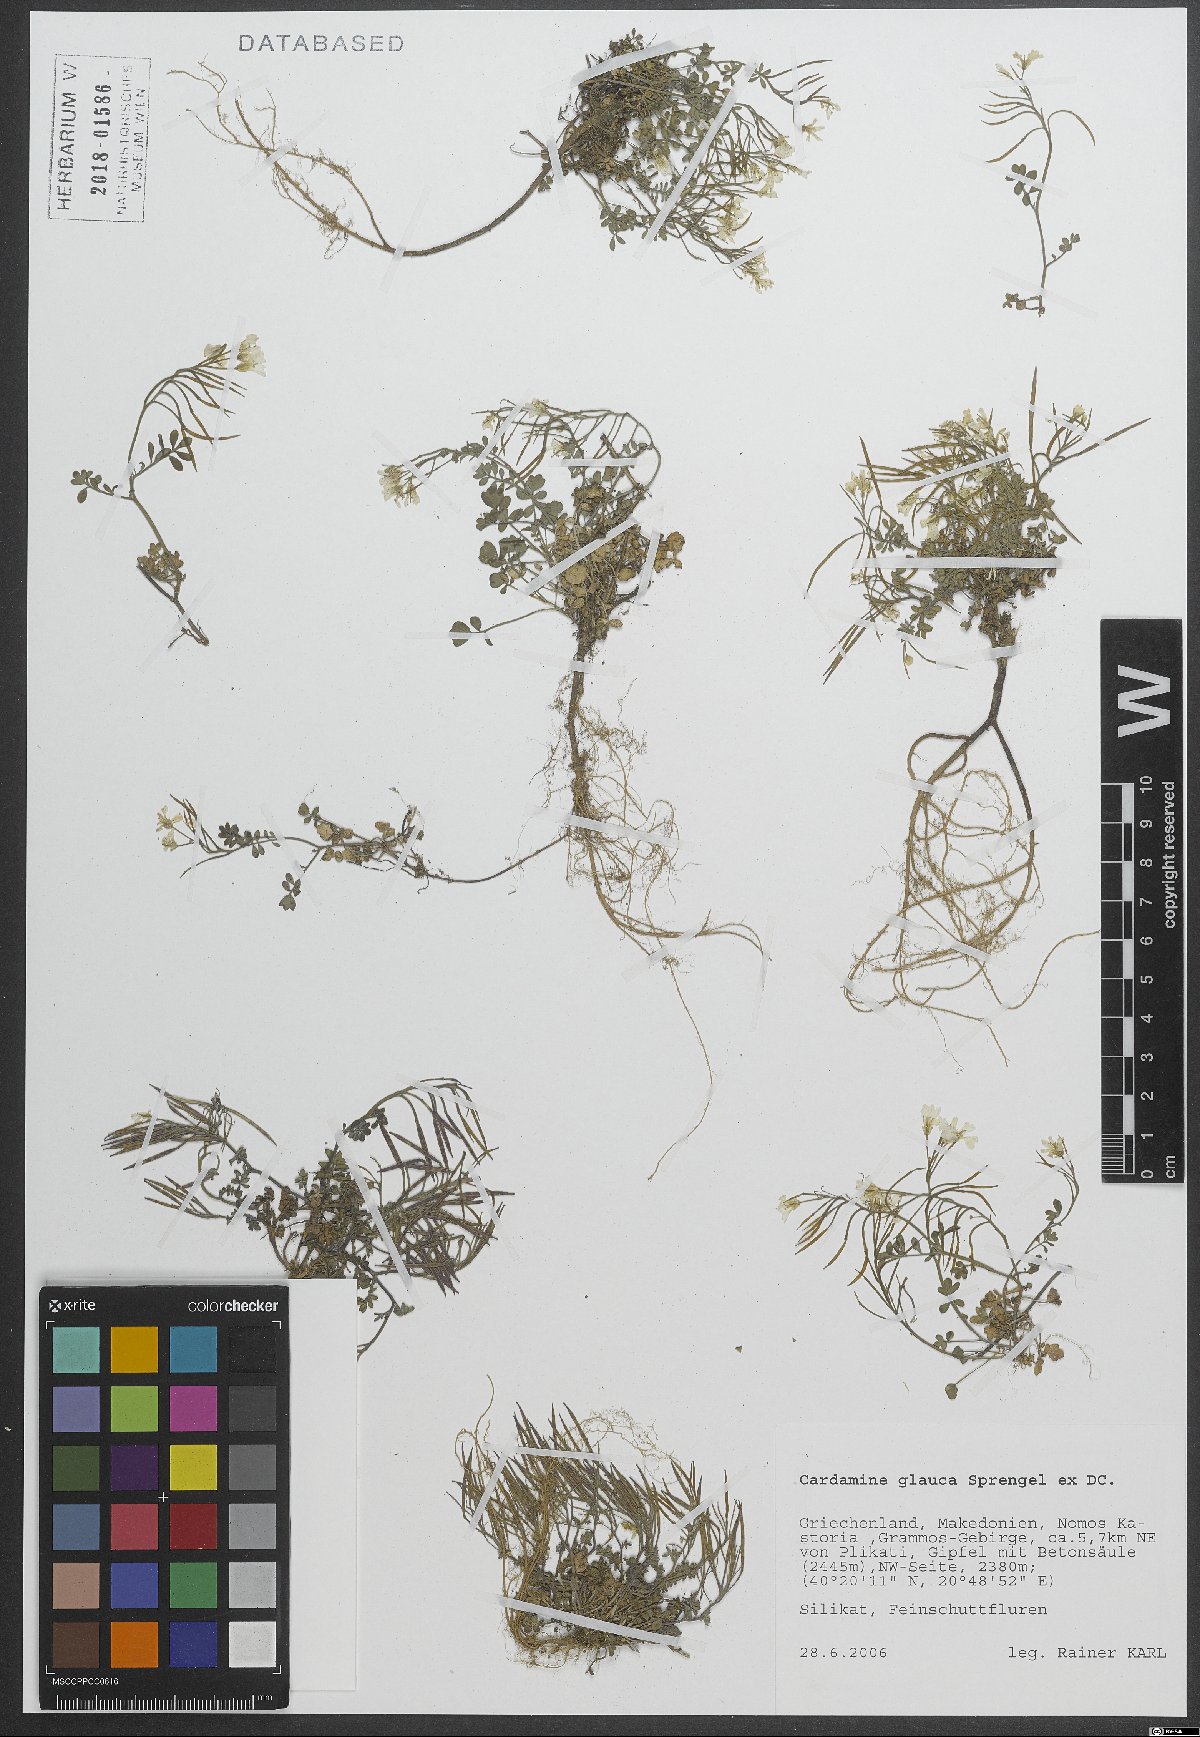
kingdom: Plantae
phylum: Tracheophyta
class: Magnoliopsida
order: Brassicales
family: Brassicaceae
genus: Cardamine
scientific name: Cardamine glauca
